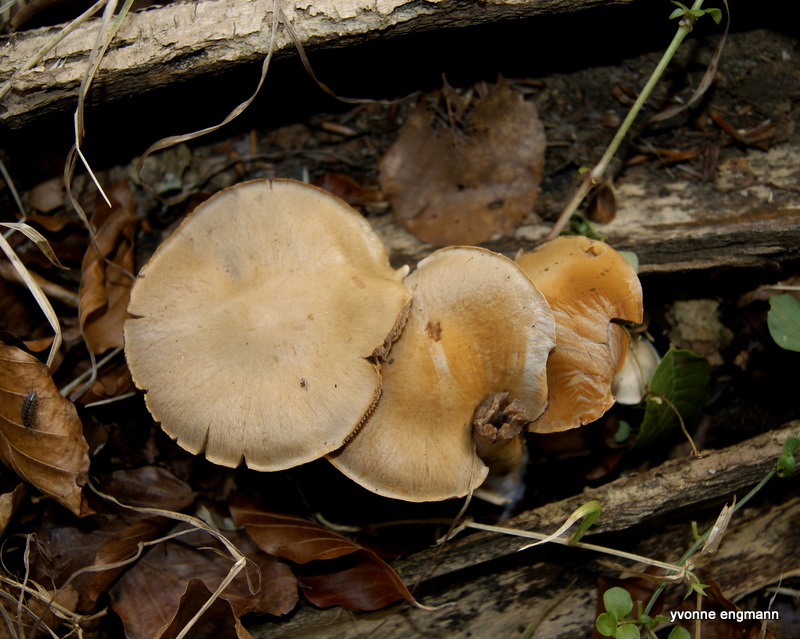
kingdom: Fungi
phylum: Basidiomycota
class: Agaricomycetes
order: Agaricales
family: Cortinariaceae
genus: Cortinarius
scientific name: Cortinarius
